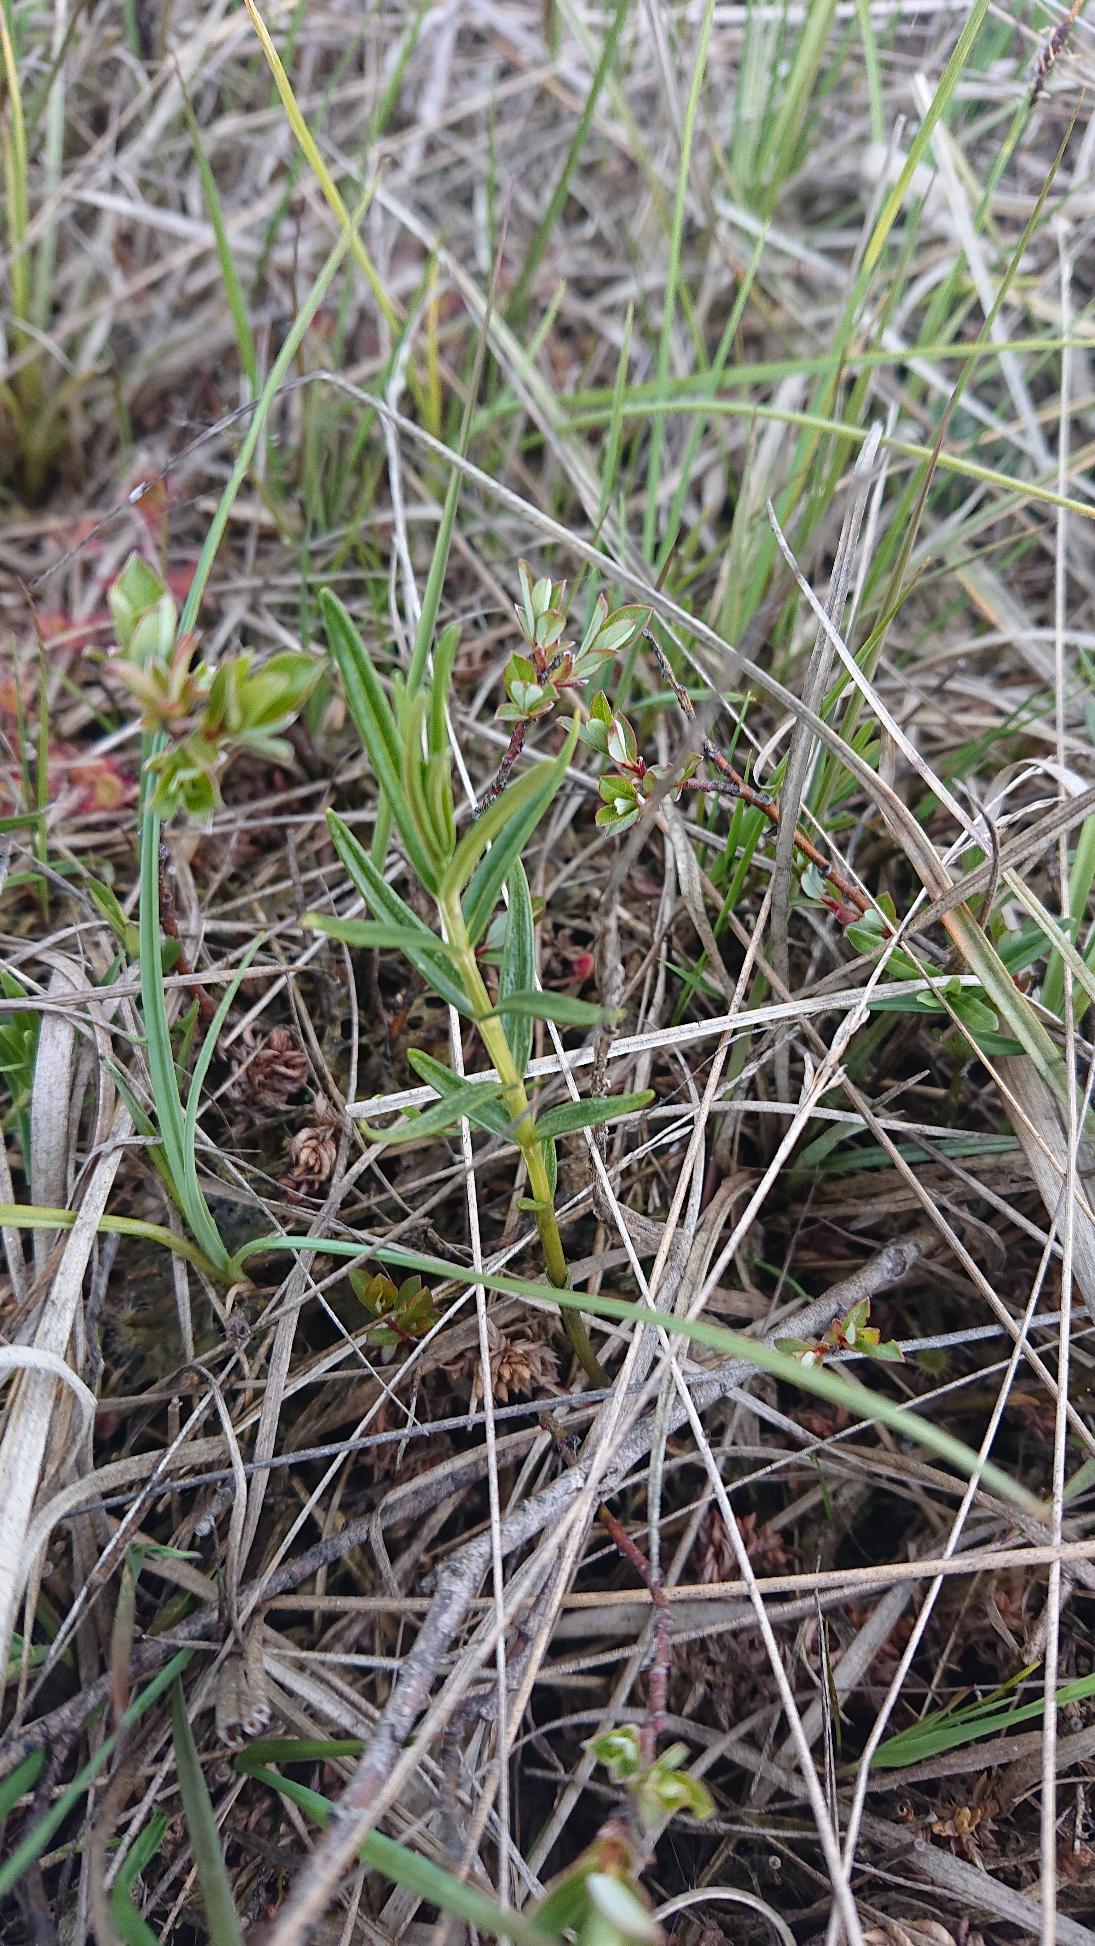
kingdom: Plantae
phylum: Tracheophyta
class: Magnoliopsida
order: Gentianales
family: Gentianaceae
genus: Gentiana
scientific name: Gentiana pneumonanthe
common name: Klokke-ensian
